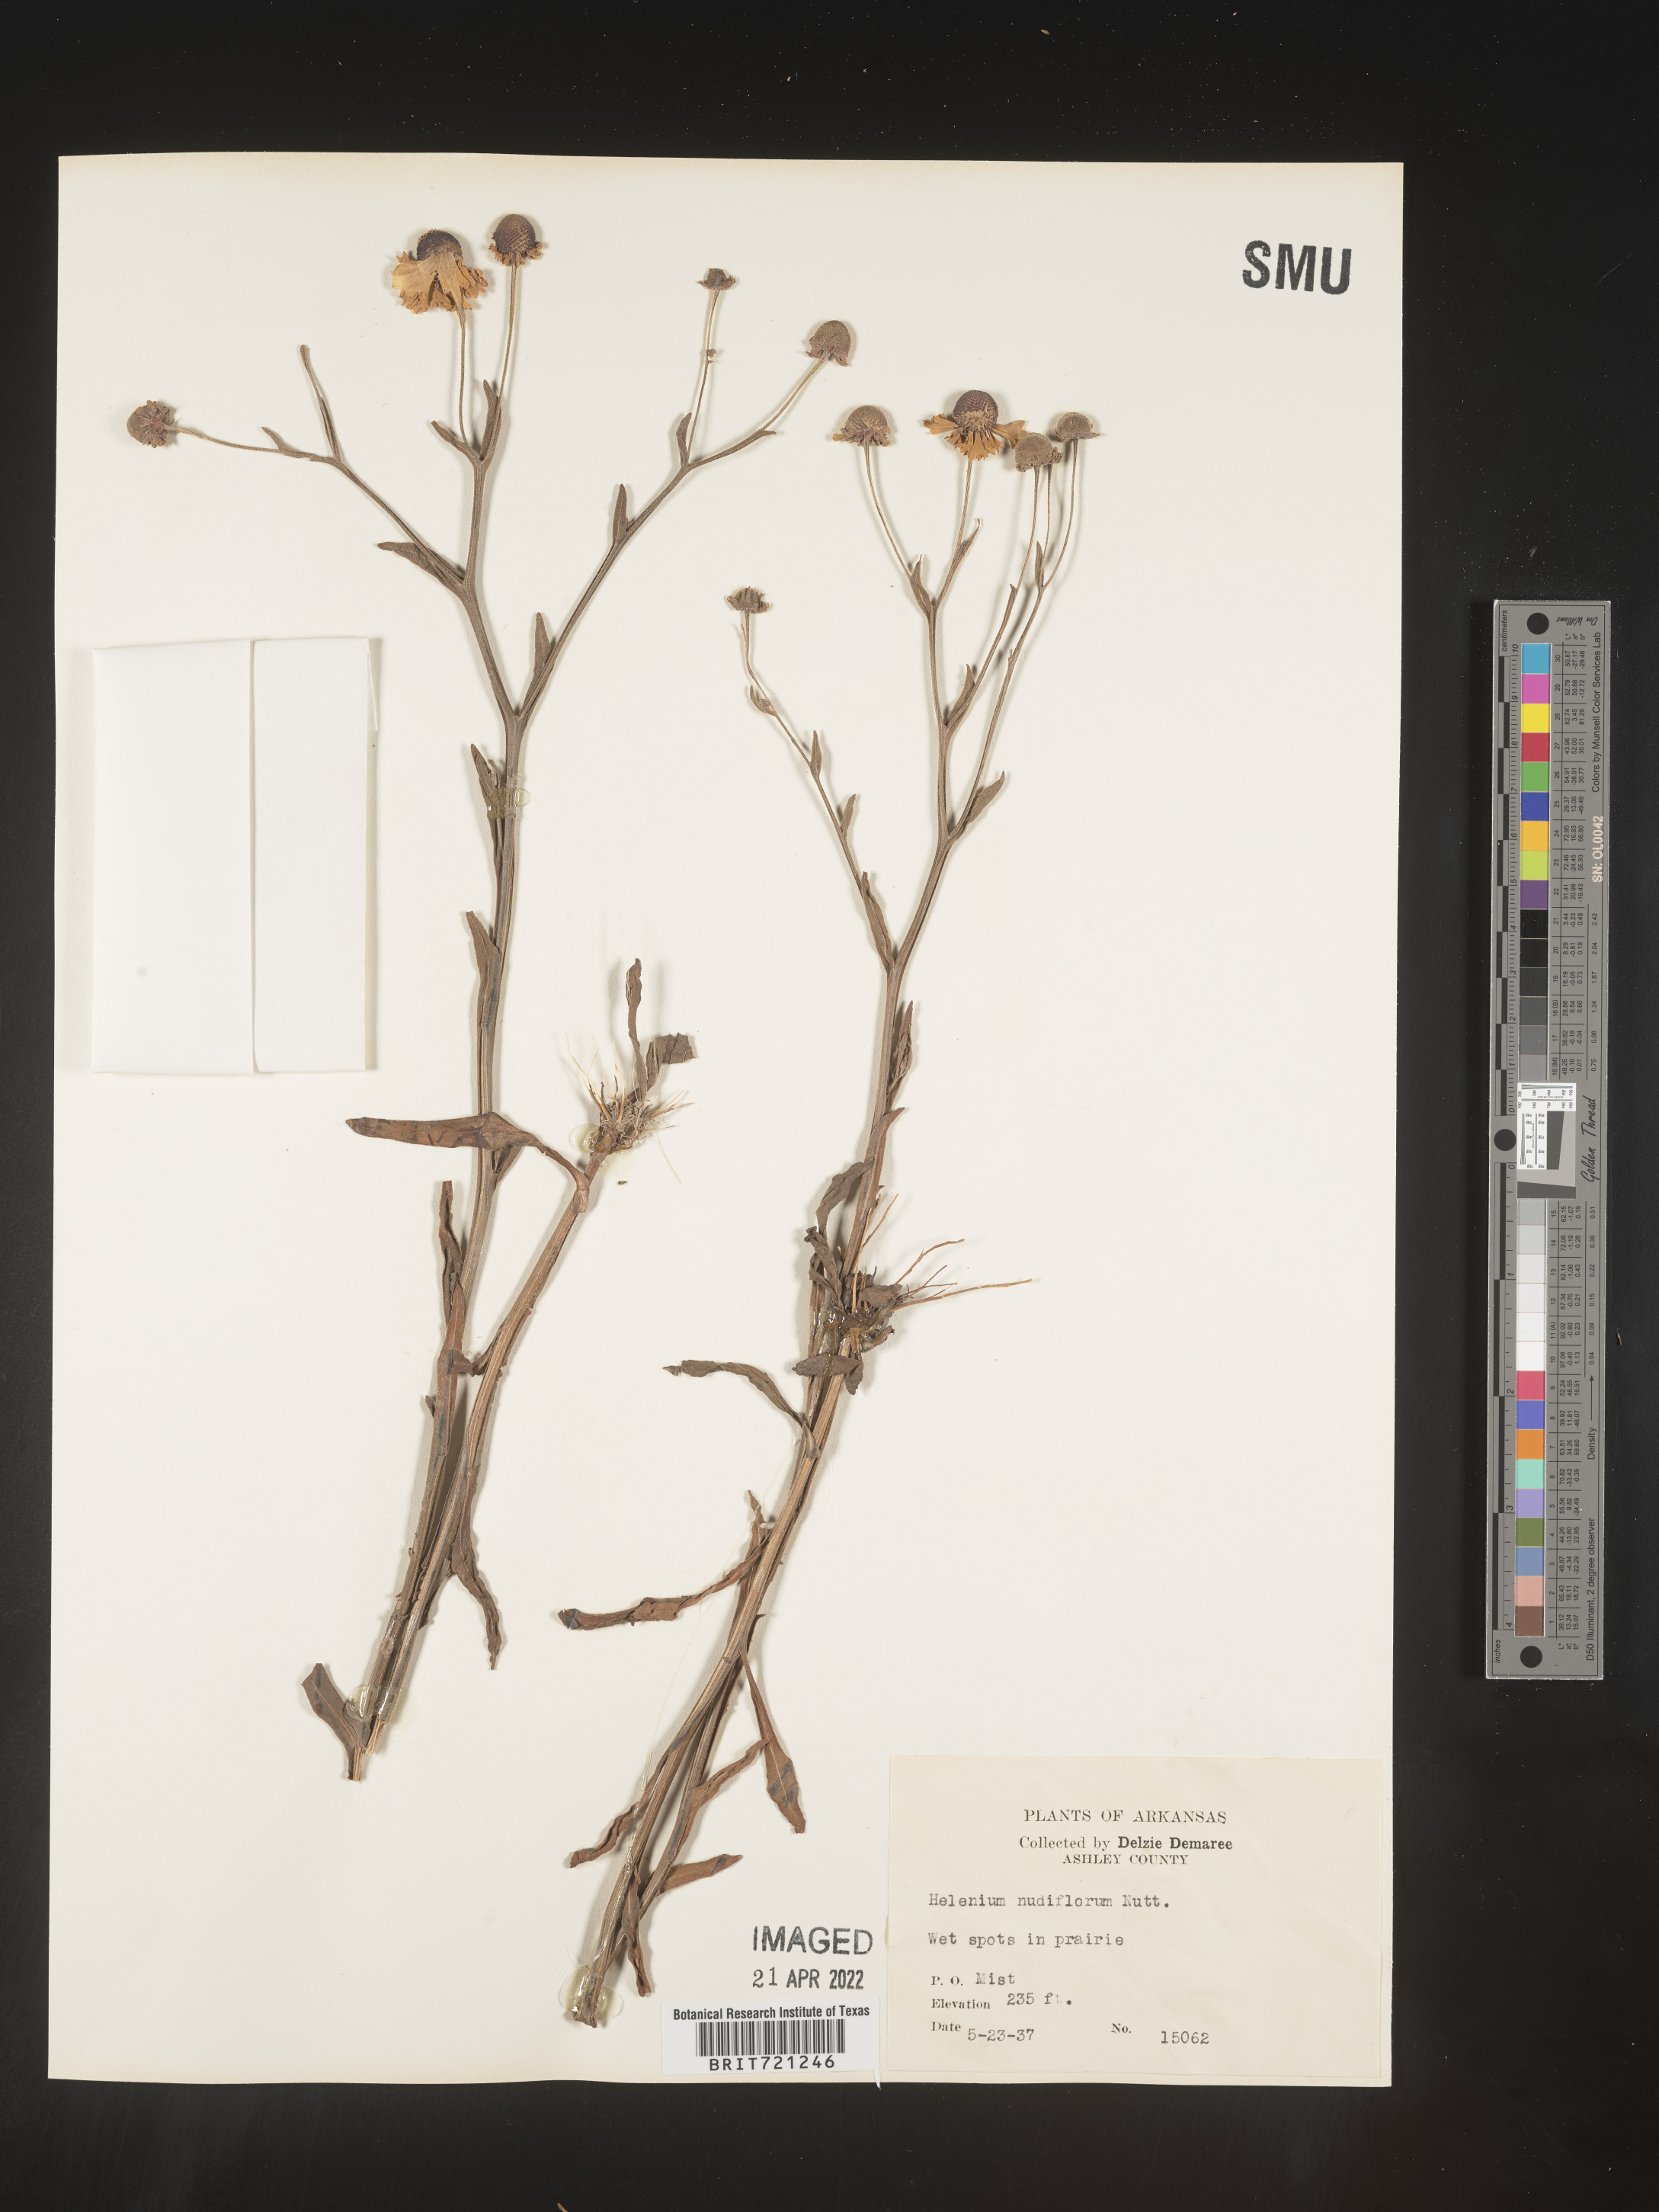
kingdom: Plantae
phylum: Tracheophyta
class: Magnoliopsida
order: Asterales
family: Asteraceae
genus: Helenium
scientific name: Helenium flexuosum
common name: Naked-flowered sneezeweed
